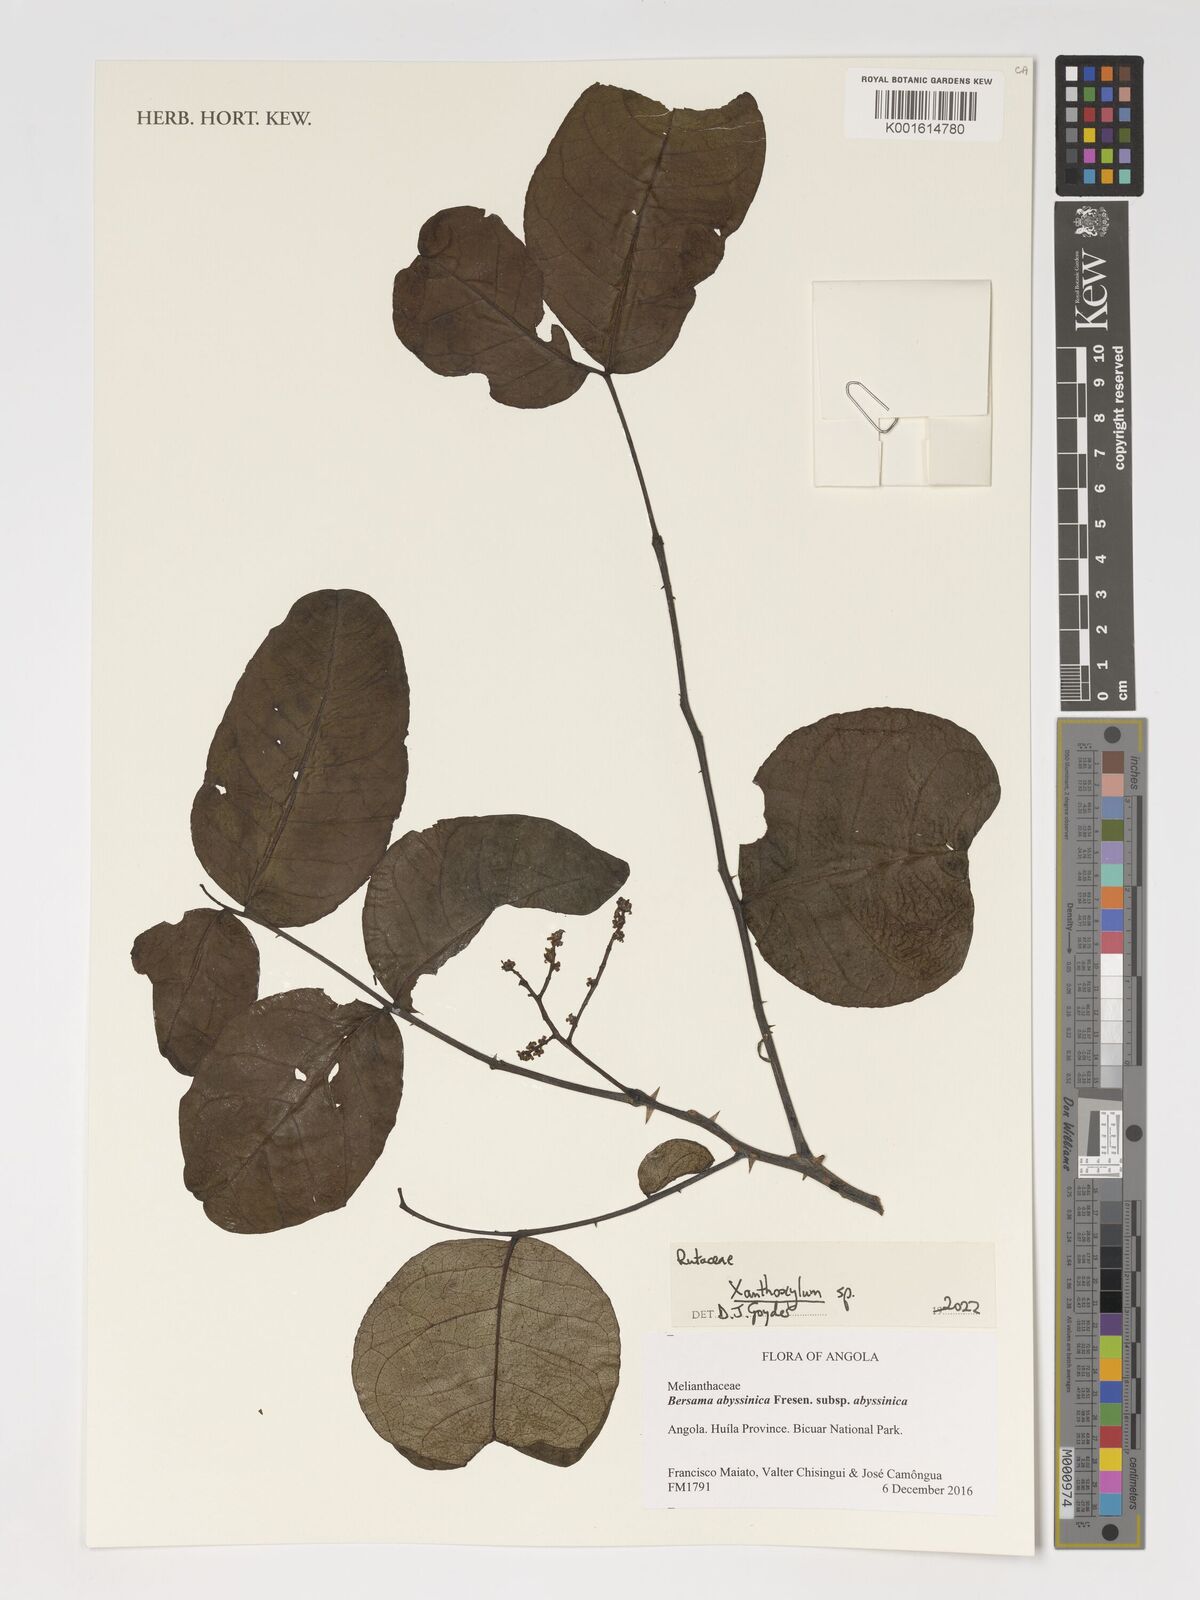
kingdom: Plantae
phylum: Tracheophyta
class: Magnoliopsida
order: Sapindales
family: Rutaceae
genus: Zanthoxylum
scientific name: Zanthoxylum
